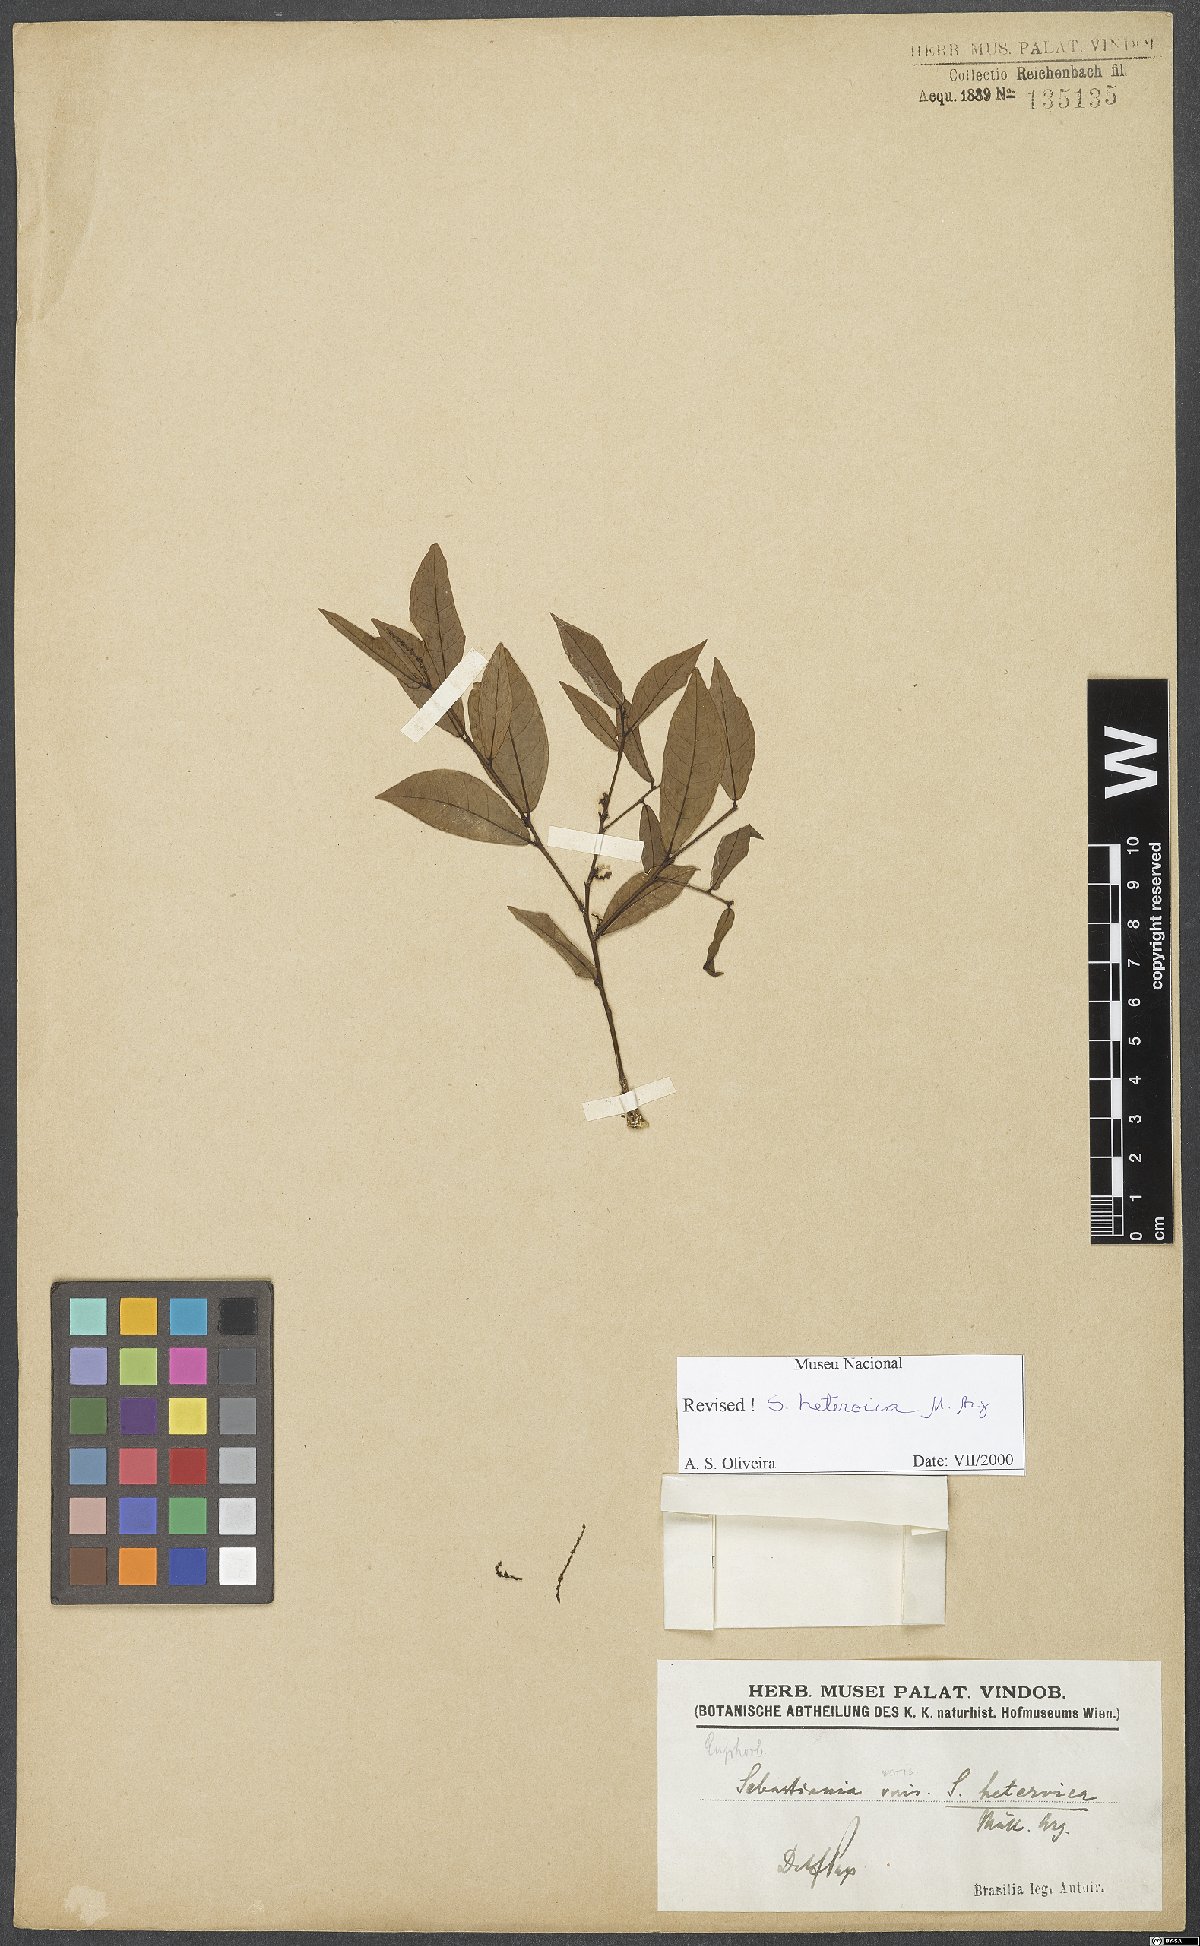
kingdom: Plantae
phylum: Tracheophyta
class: Magnoliopsida
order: Malpighiales
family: Euphorbiaceae
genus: Sebastiania
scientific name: Sebastiania heteroica
